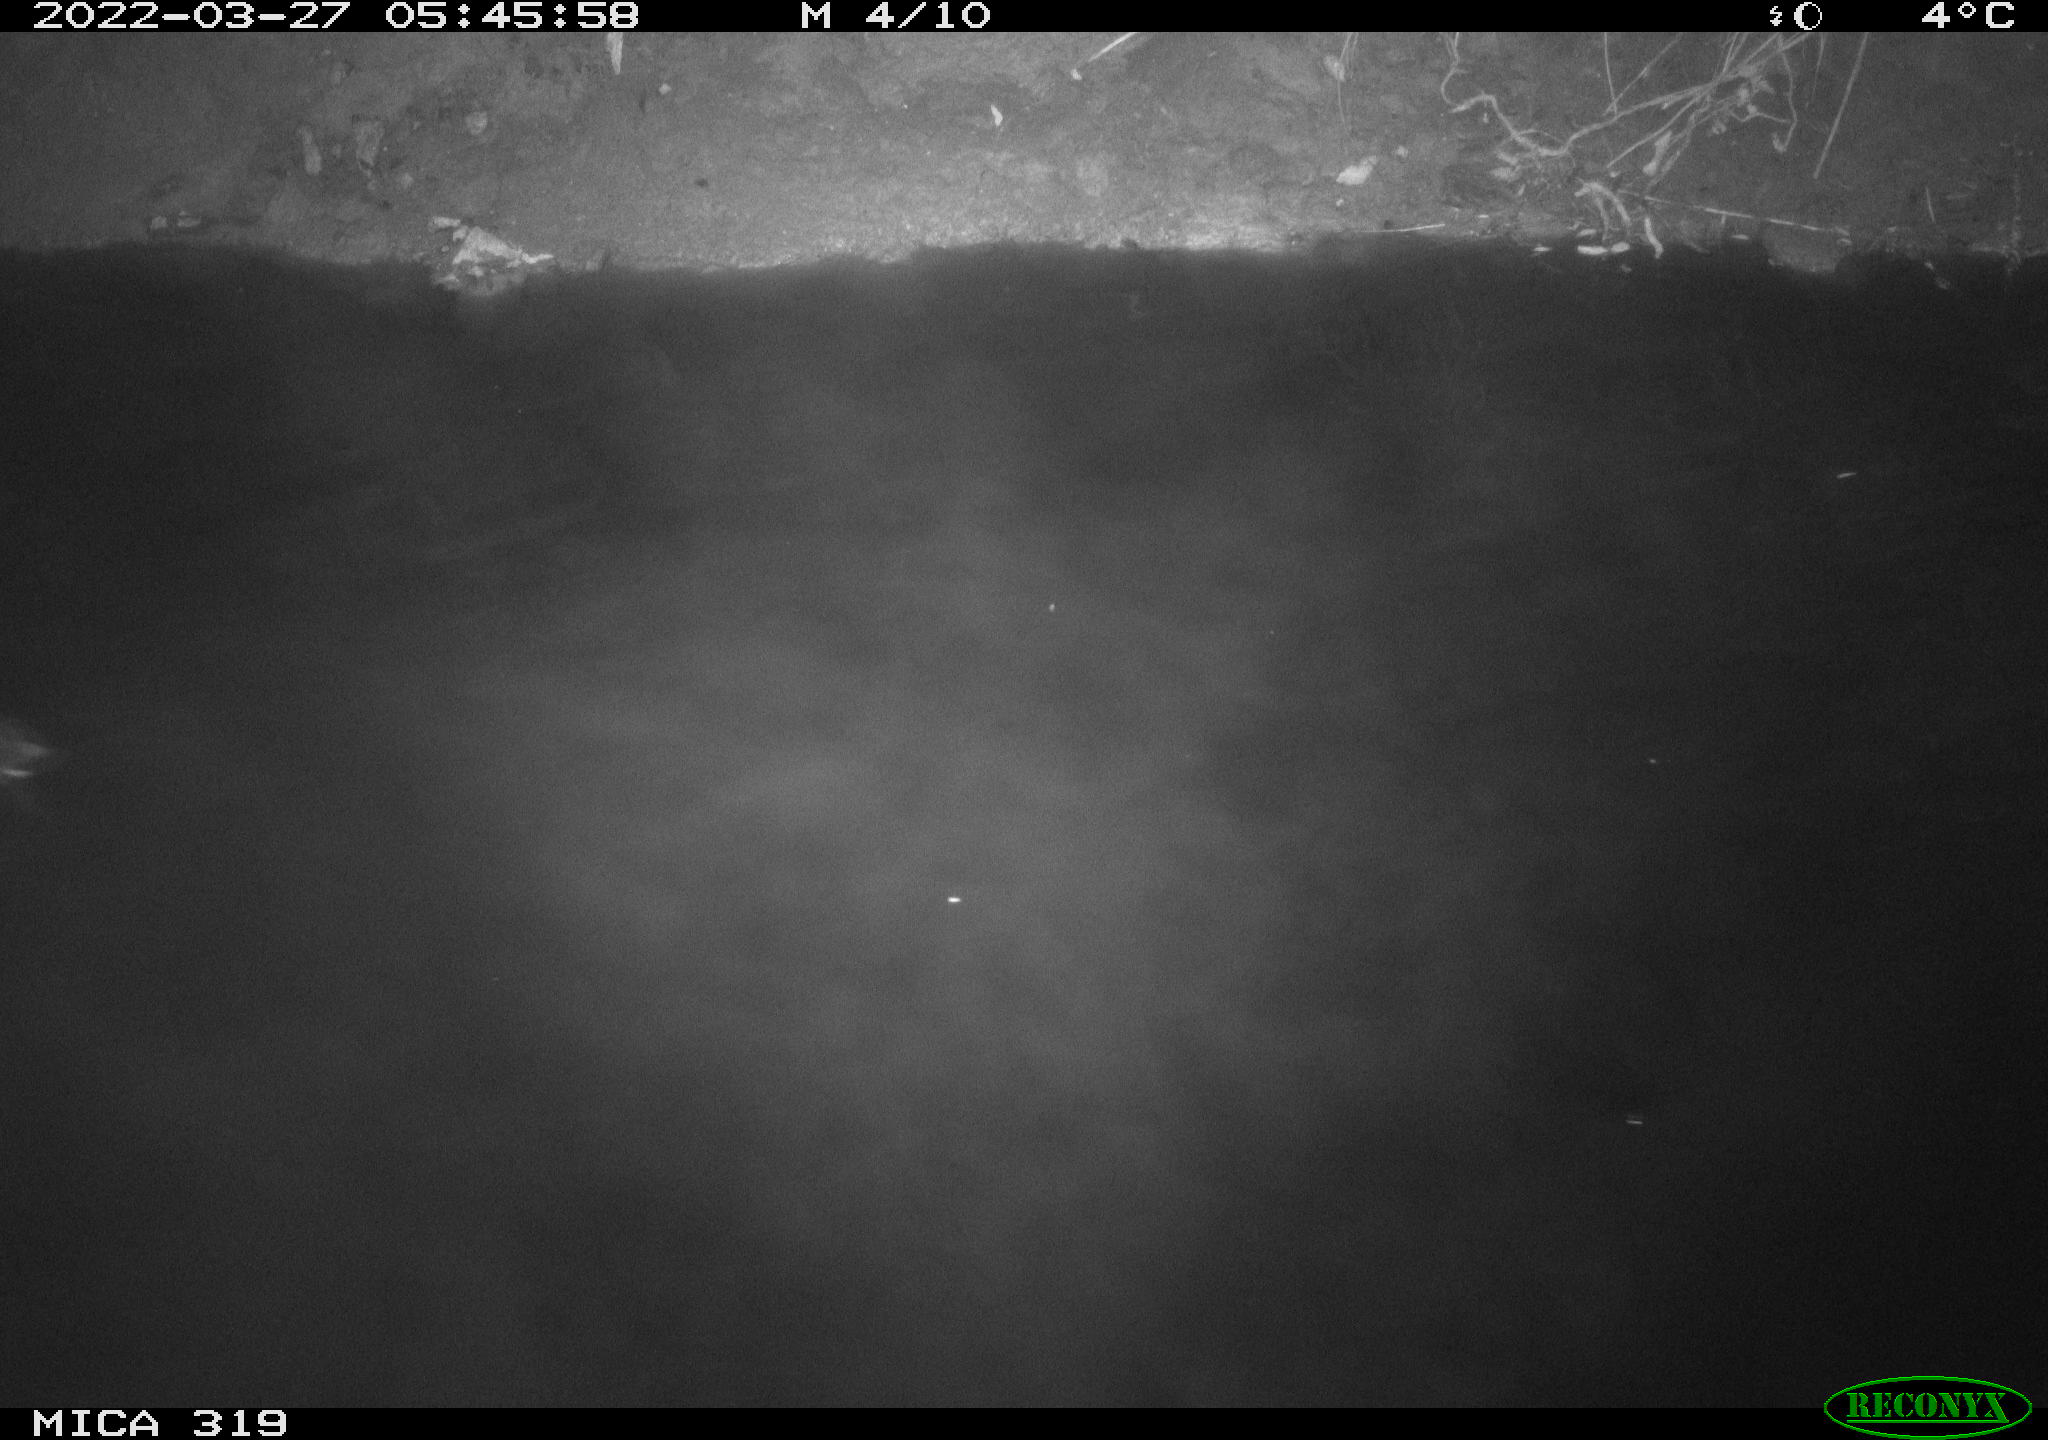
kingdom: Animalia
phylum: Chordata
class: Aves
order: Gruiformes
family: Rallidae
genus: Gallinula
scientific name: Gallinula chloropus
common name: Common moorhen
